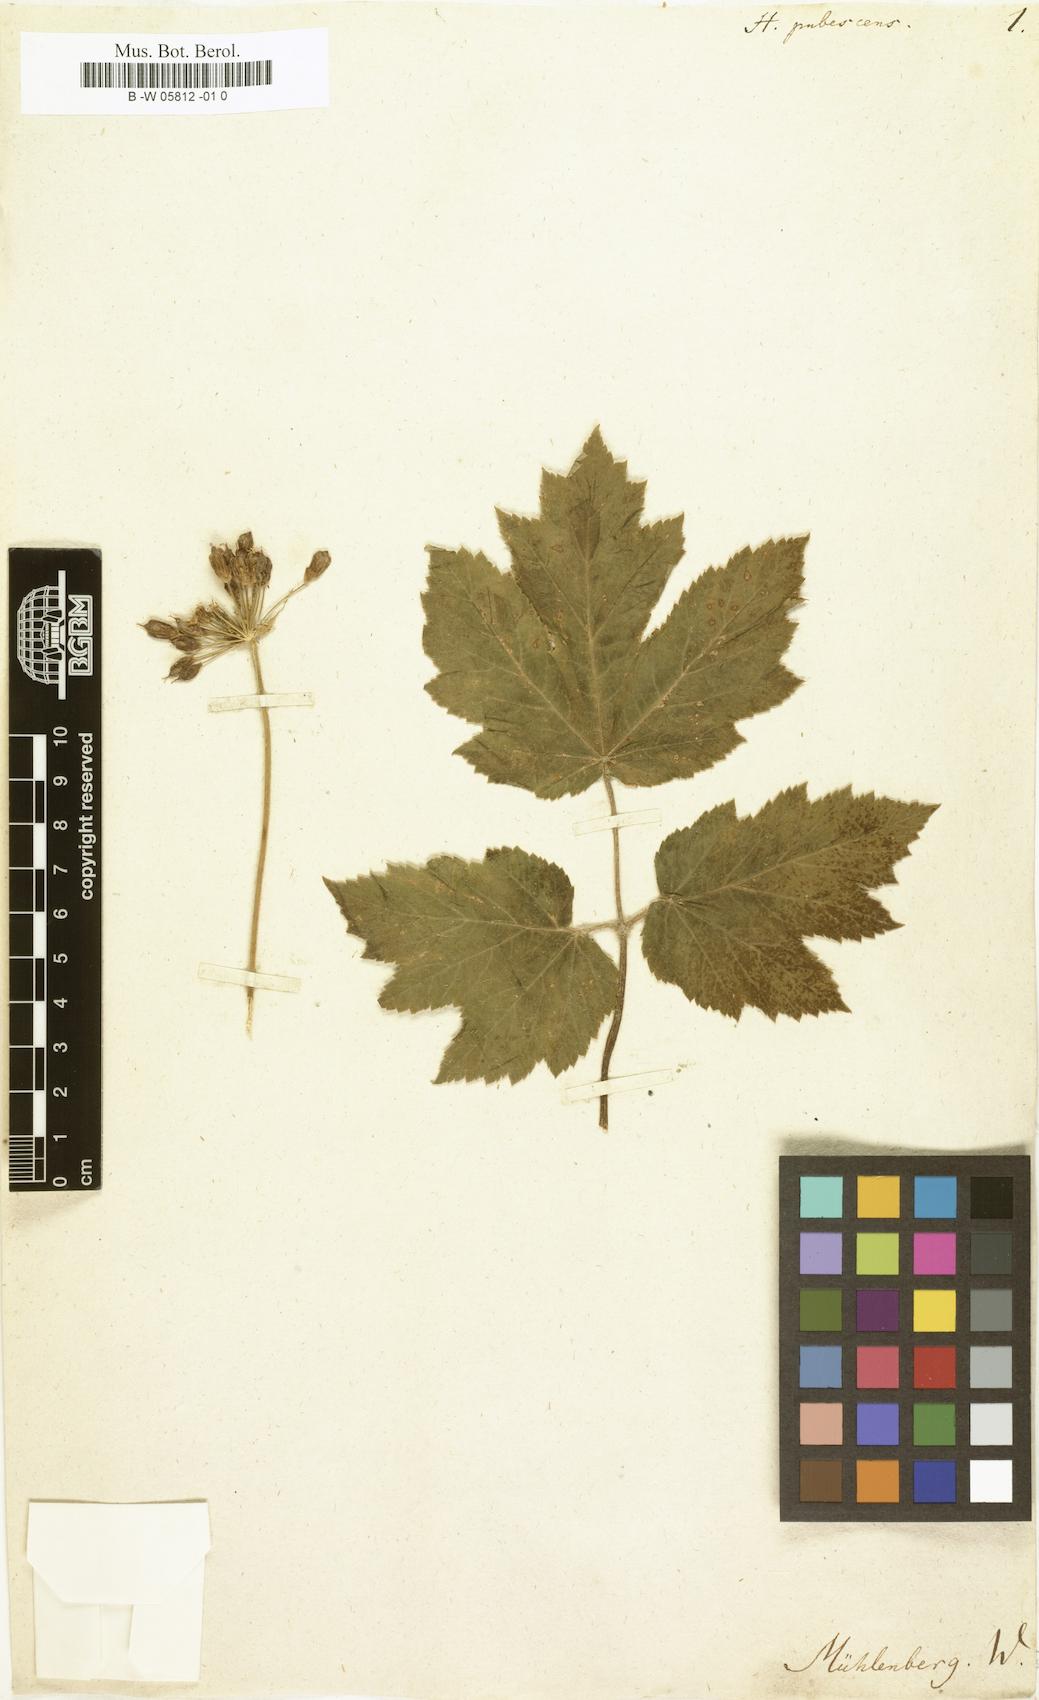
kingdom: Plantae
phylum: Tracheophyta
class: Magnoliopsida
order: Apiales
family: Apiaceae
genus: Heracleum
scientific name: Heracleum pubescens
